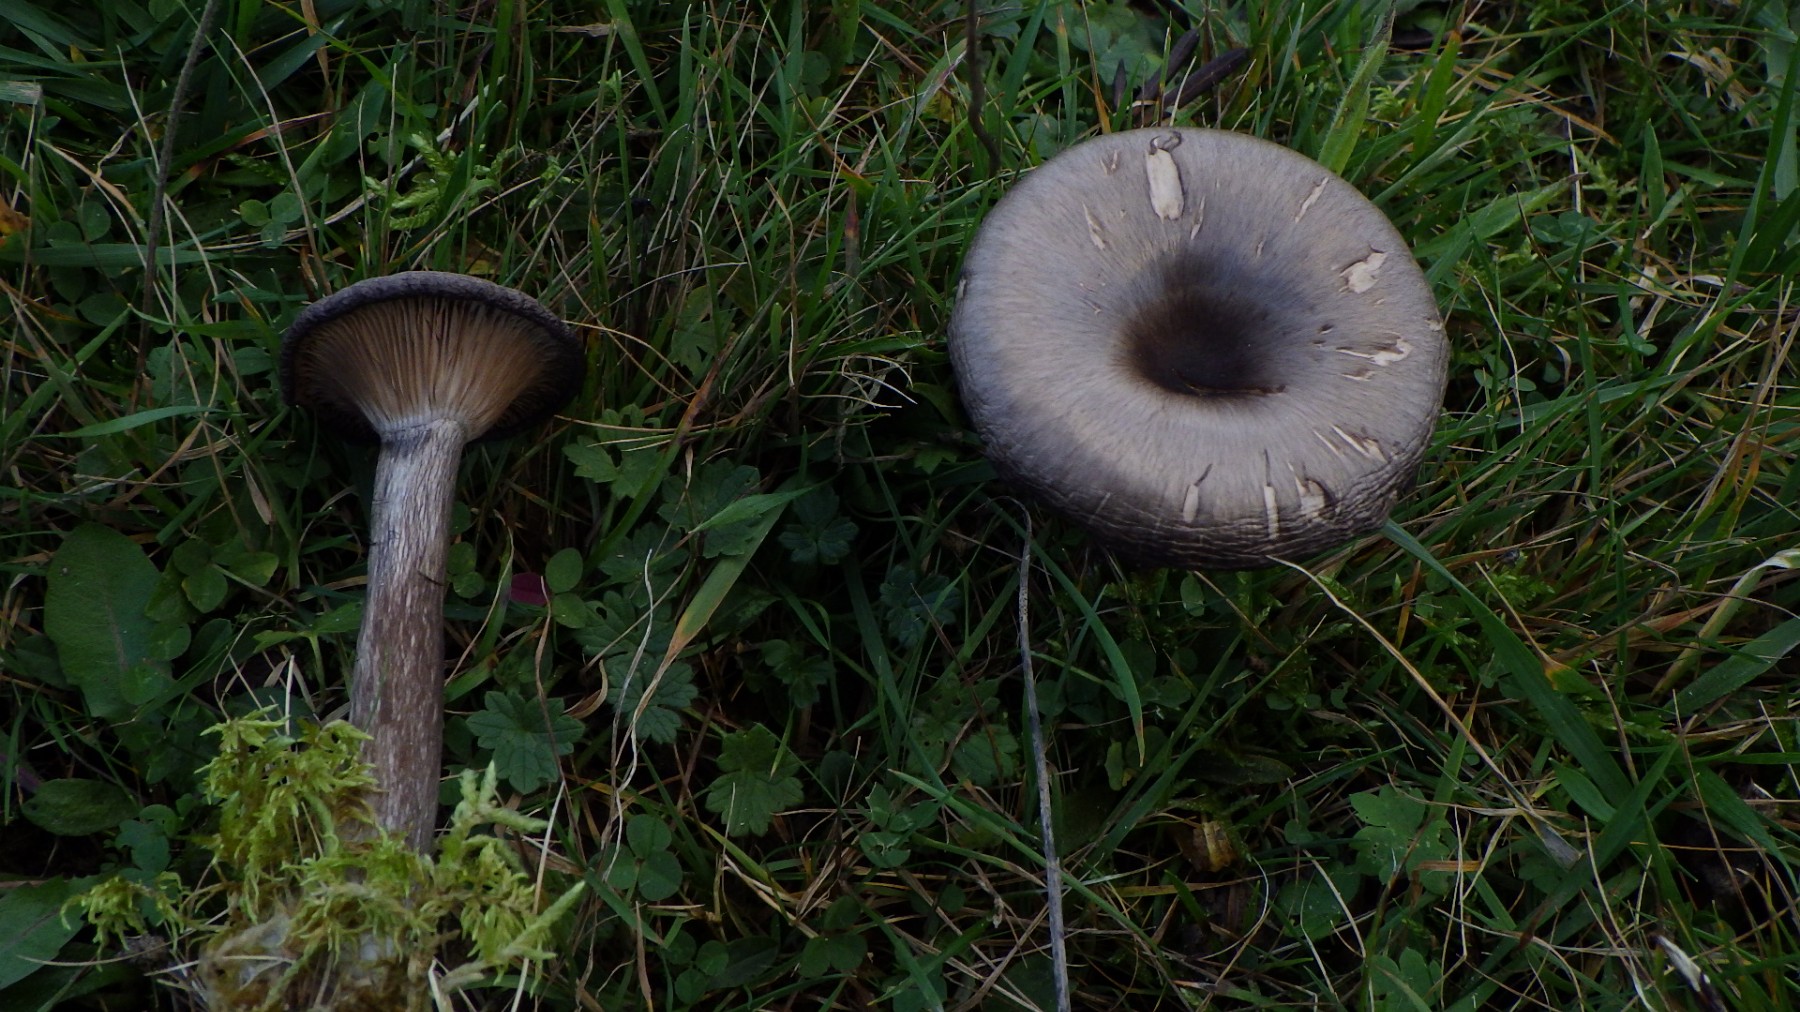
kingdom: Fungi
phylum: Basidiomycota
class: Agaricomycetes
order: Agaricales
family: Pseudoclitocybaceae
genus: Pseudoclitocybe
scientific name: Pseudoclitocybe cyathiformis
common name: almindelig bægertragthat
